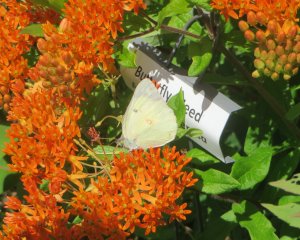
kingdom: Animalia
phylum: Arthropoda
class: Insecta
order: Lepidoptera
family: Pieridae
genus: Colias
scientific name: Colias philodice
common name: Clouded Sulphur
